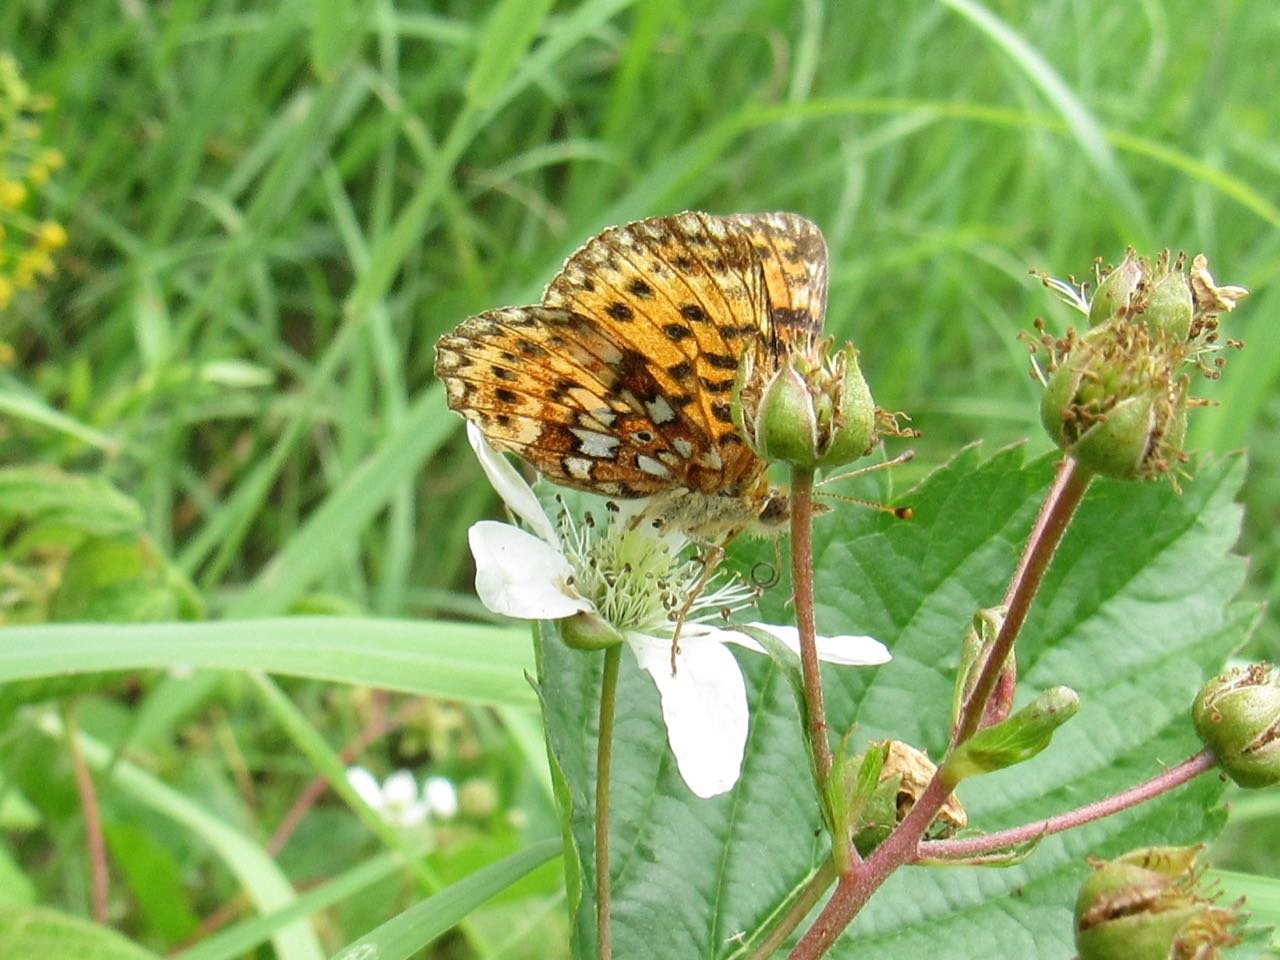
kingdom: Animalia
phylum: Arthropoda
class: Insecta
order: Lepidoptera
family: Nymphalidae
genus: Boloria
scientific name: Boloria selene
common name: Silver-bordered Fritillary
